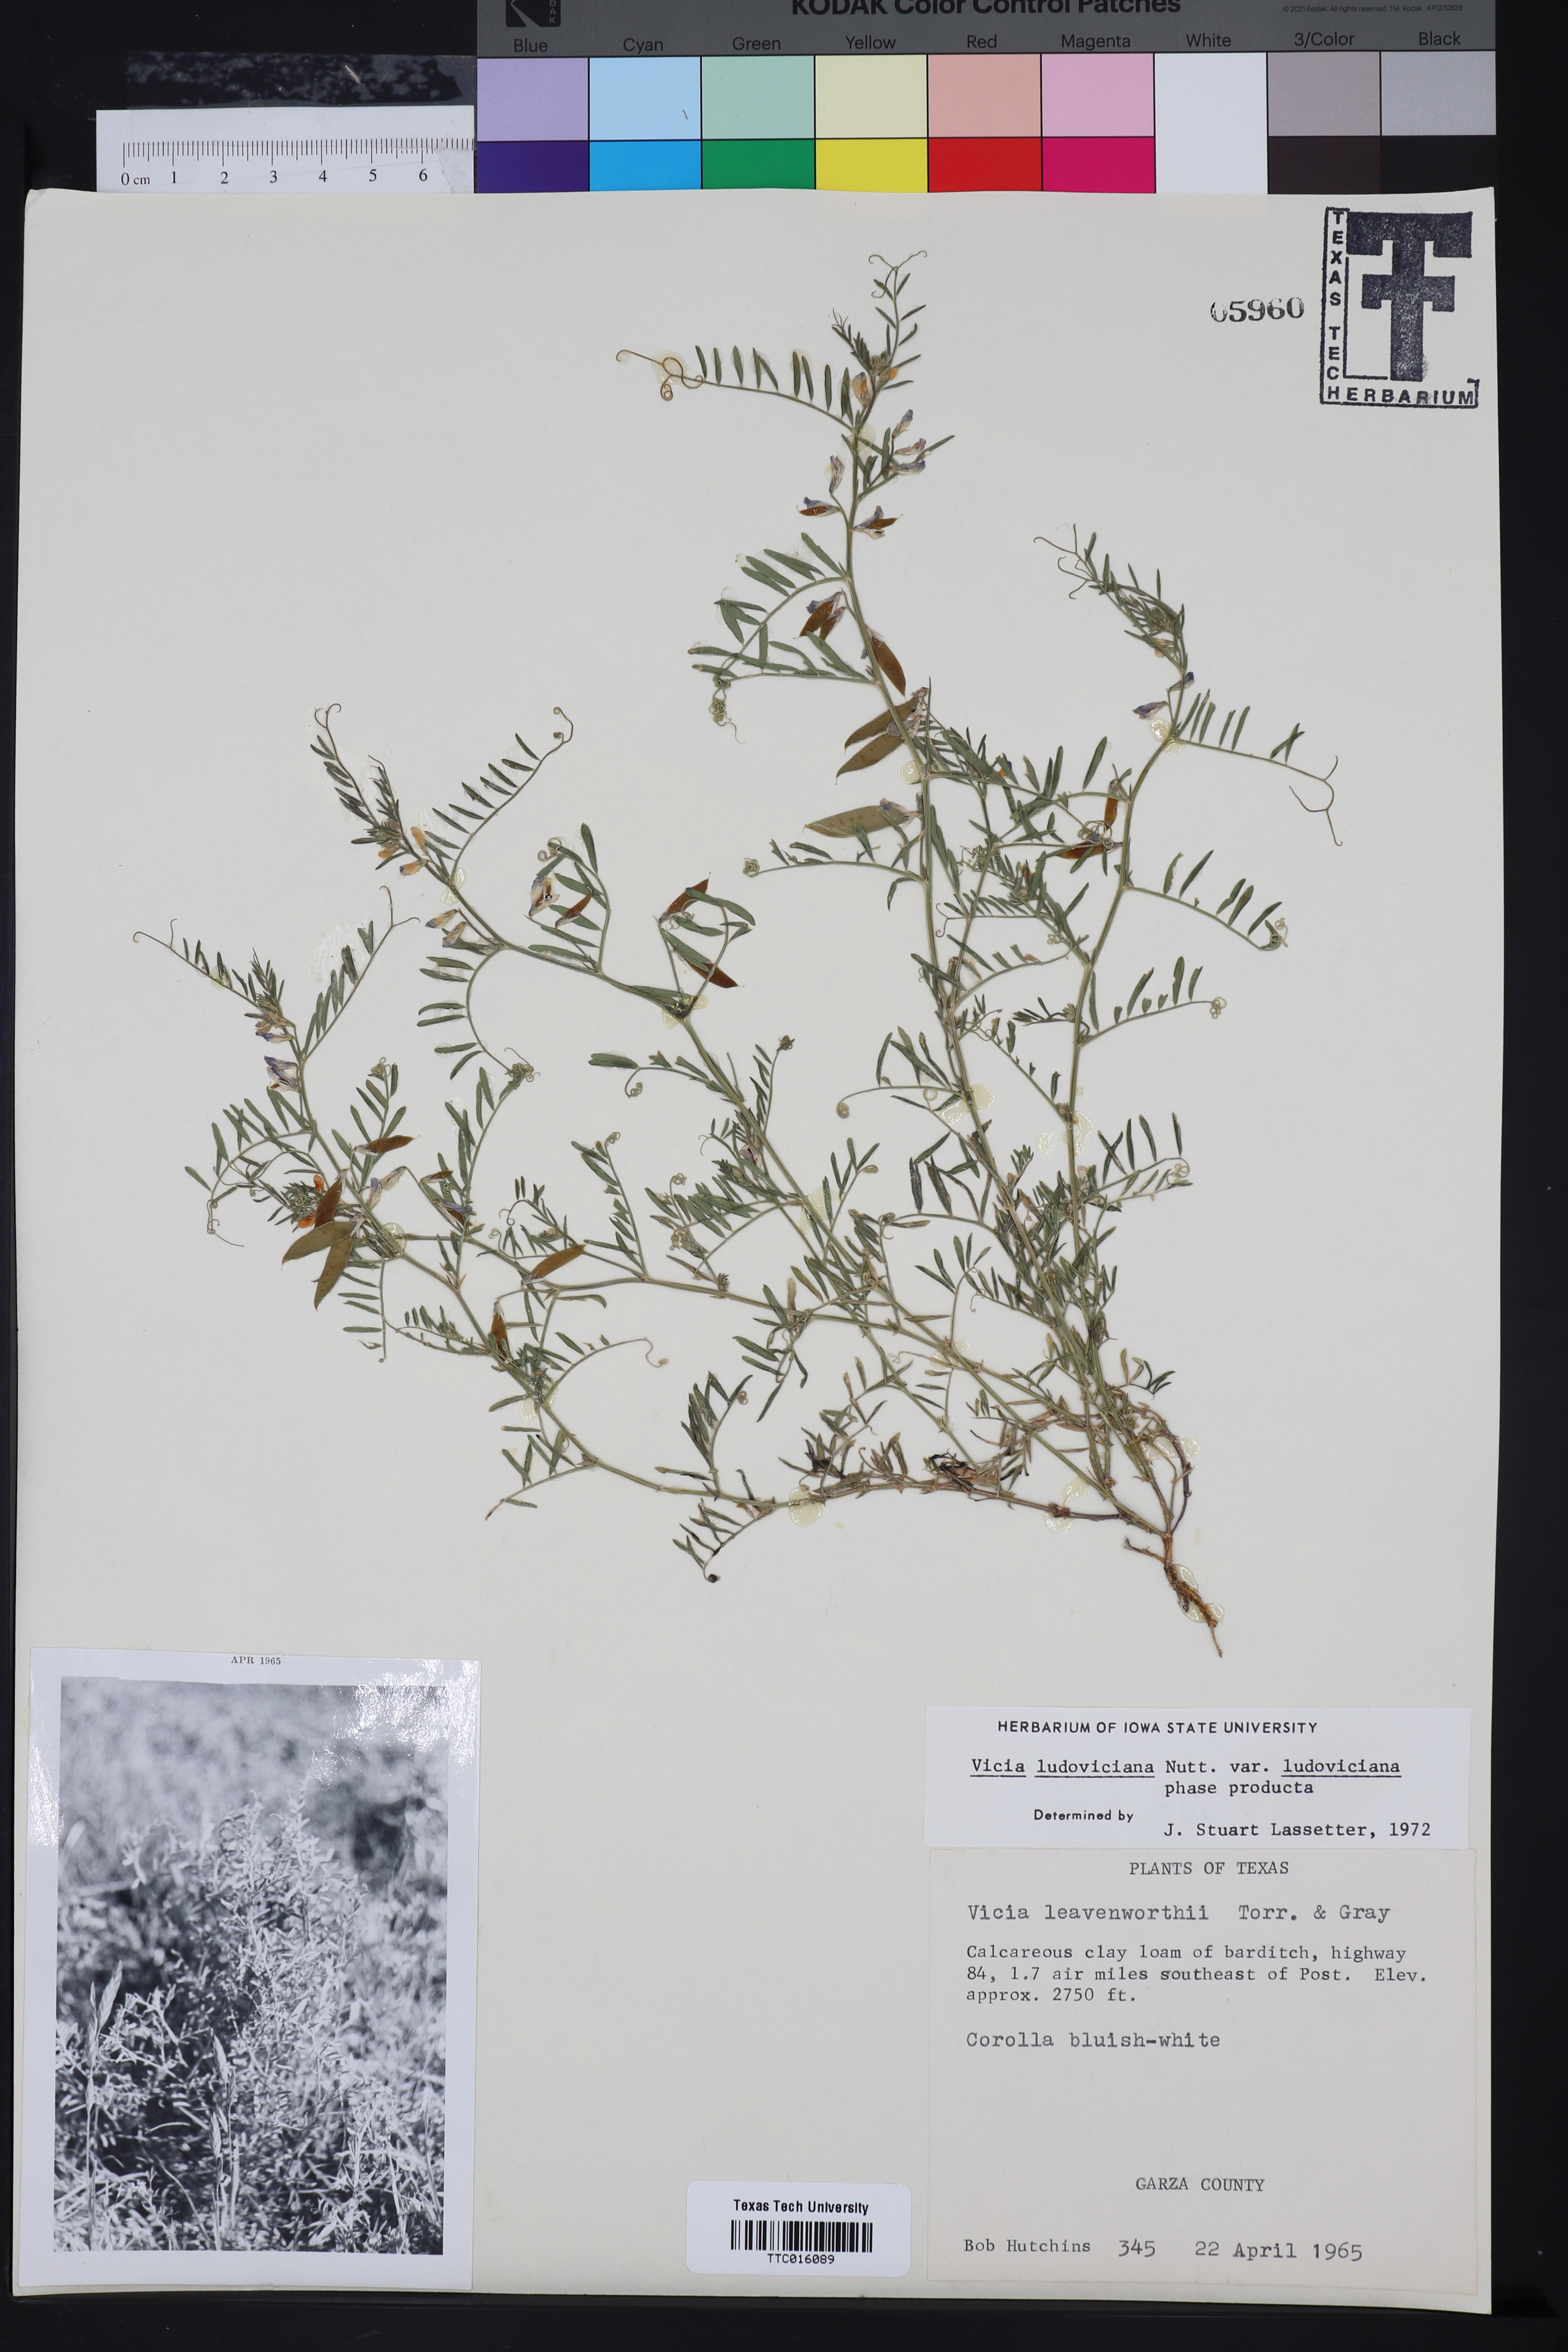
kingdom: Plantae
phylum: Tracheophyta
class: Magnoliopsida
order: Fabales
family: Fabaceae
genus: Vicia
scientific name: Vicia ludoviciana
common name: Louisiana vetch
